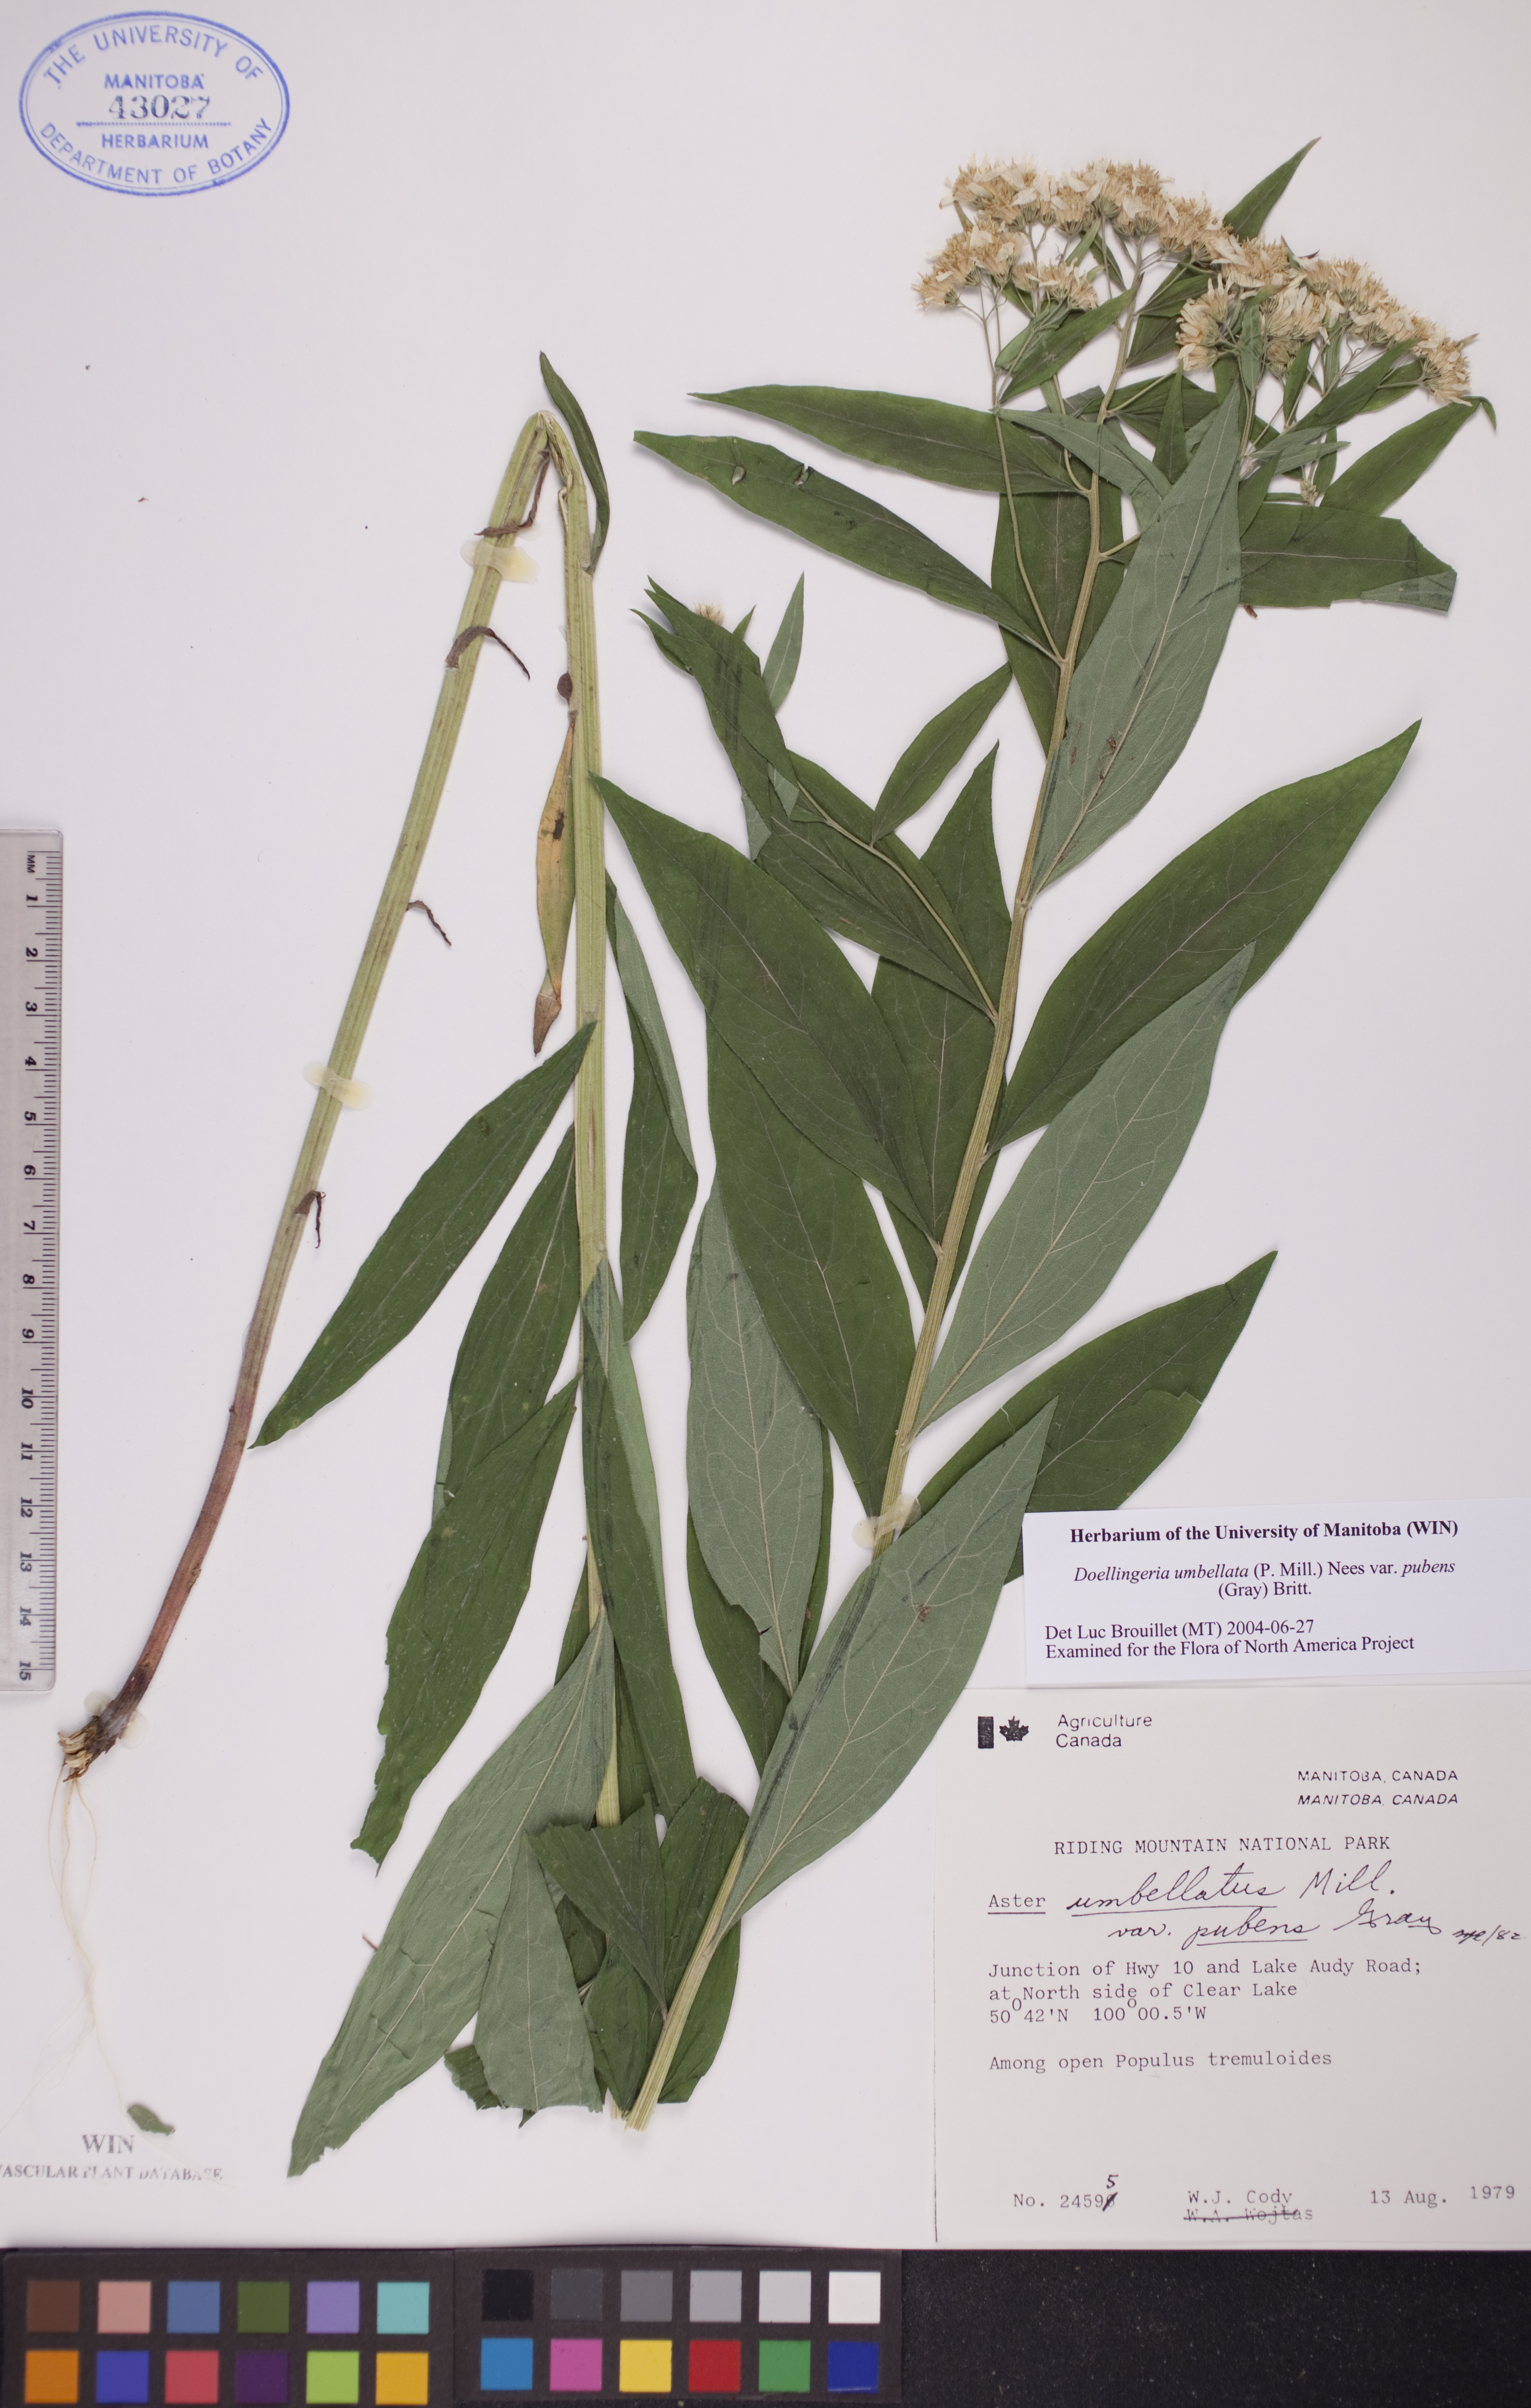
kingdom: Plantae
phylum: Tracheophyta
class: Magnoliopsida
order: Asterales
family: Asteraceae
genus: Doellingeria
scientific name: Doellingeria umbellata
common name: Flat-top white aster
